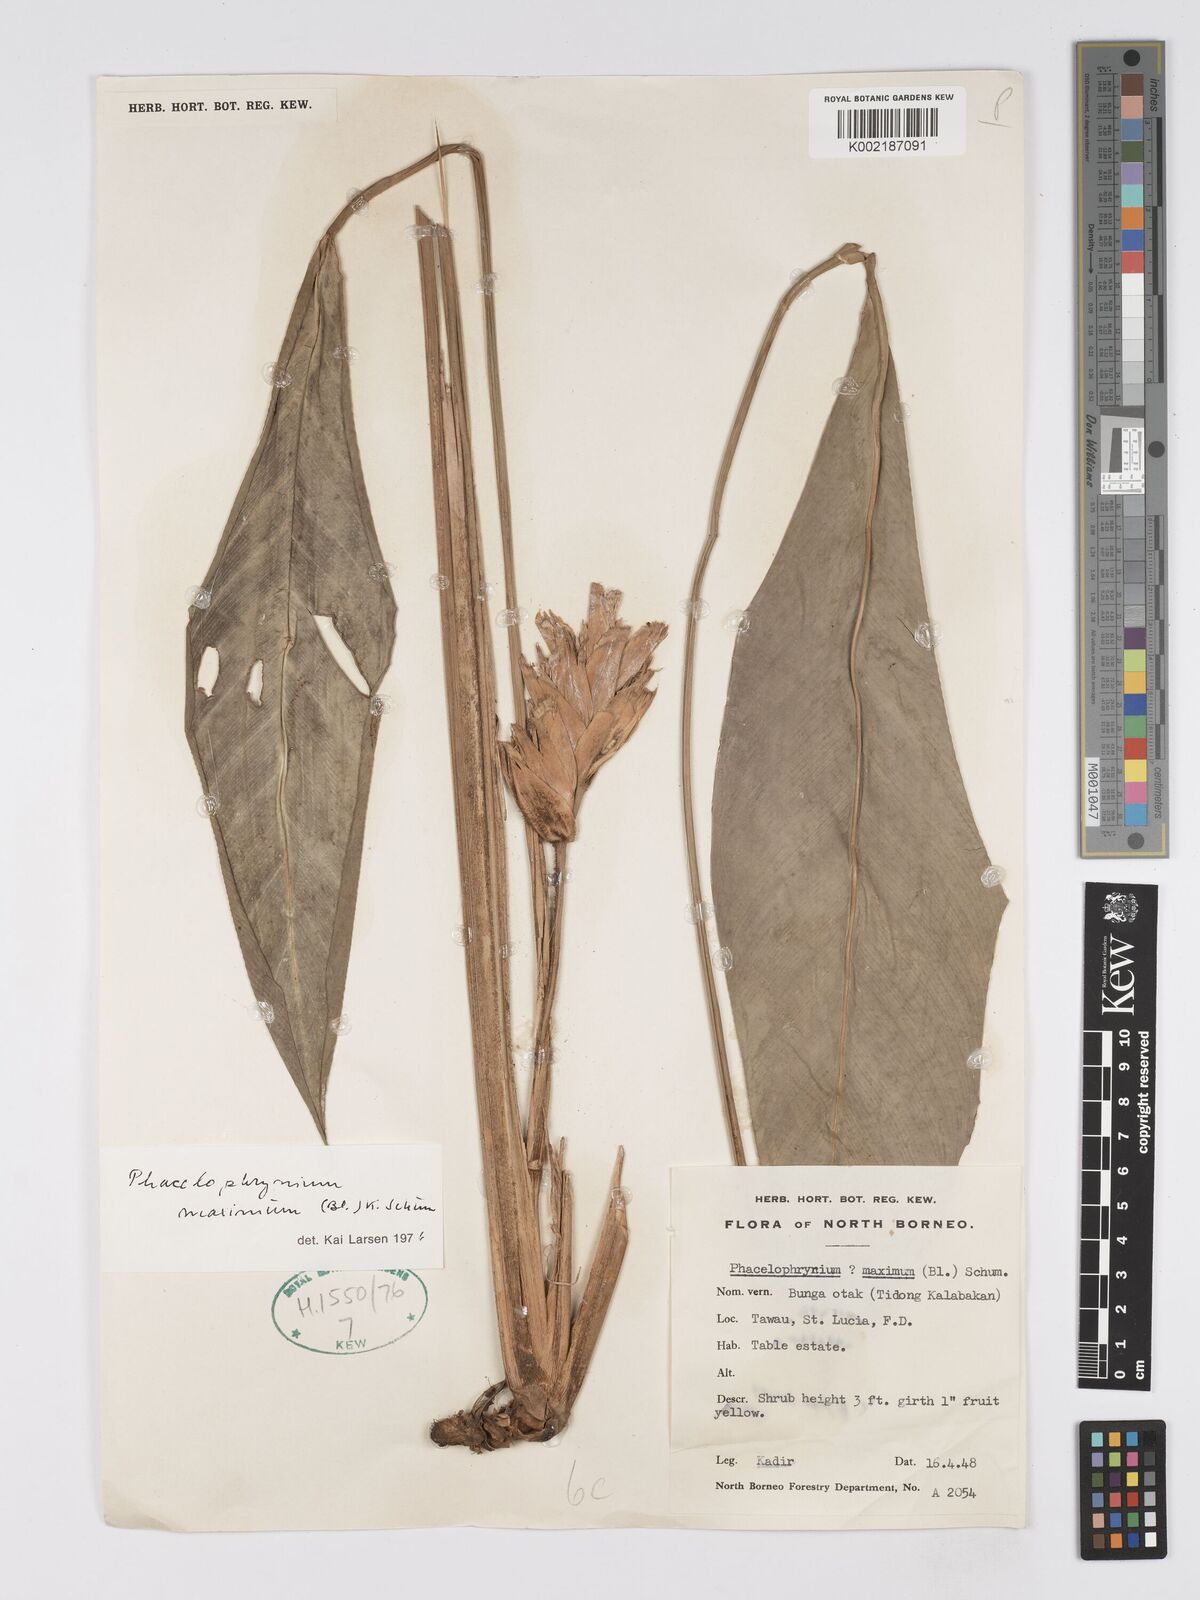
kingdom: Plantae
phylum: Tracheophyta
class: Liliopsida
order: Zingiberales
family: Marantaceae
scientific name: Marantaceae
